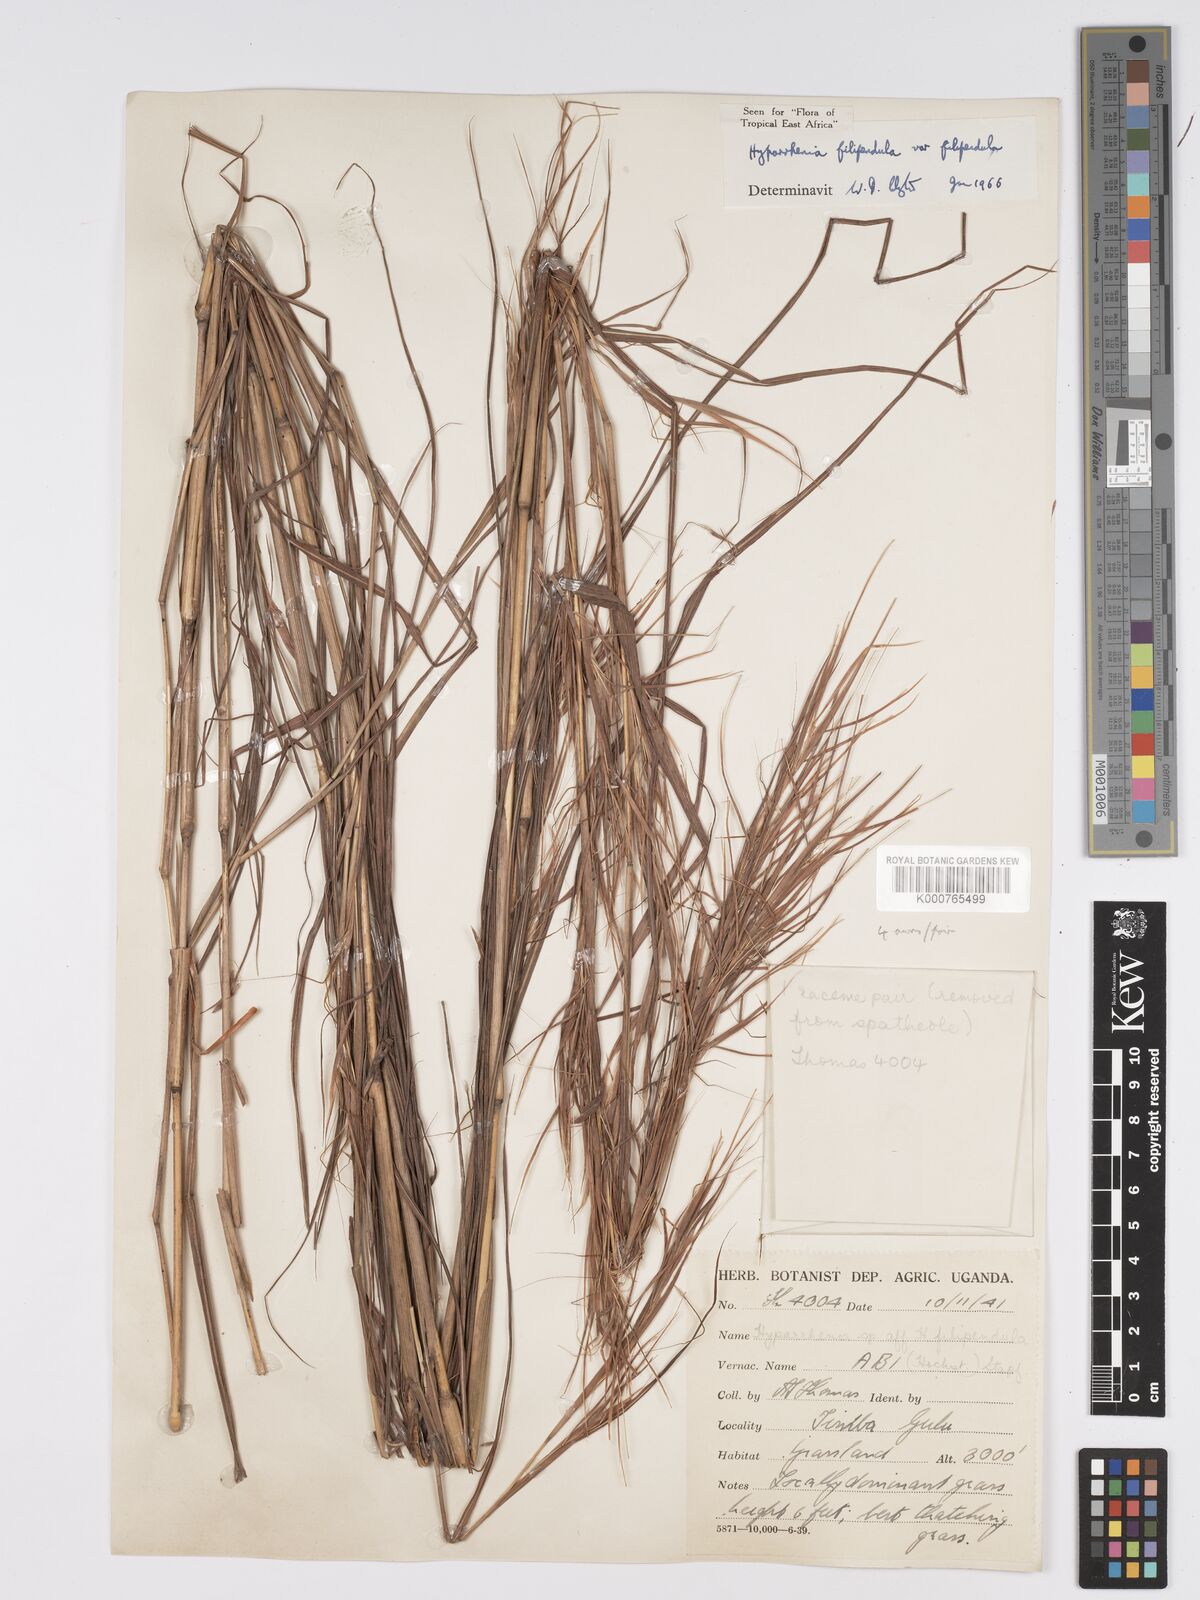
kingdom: Plantae
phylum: Tracheophyta
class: Liliopsida
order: Poales
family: Poaceae
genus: Hyparrhenia
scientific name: Hyparrhenia filipendula
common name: Tambookie grass
